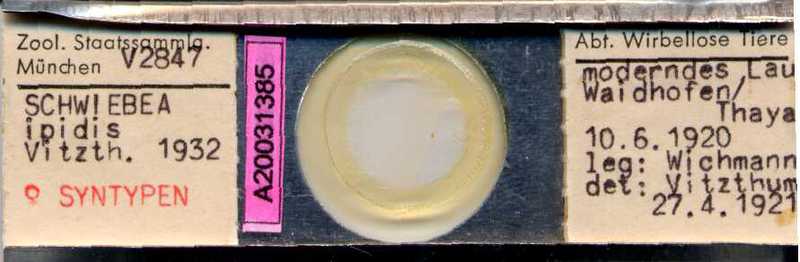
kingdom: Animalia
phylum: Arthropoda
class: Arachnida
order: Sarcoptiformes
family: Acaridae
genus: Schwiebea
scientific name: Schwiebea
